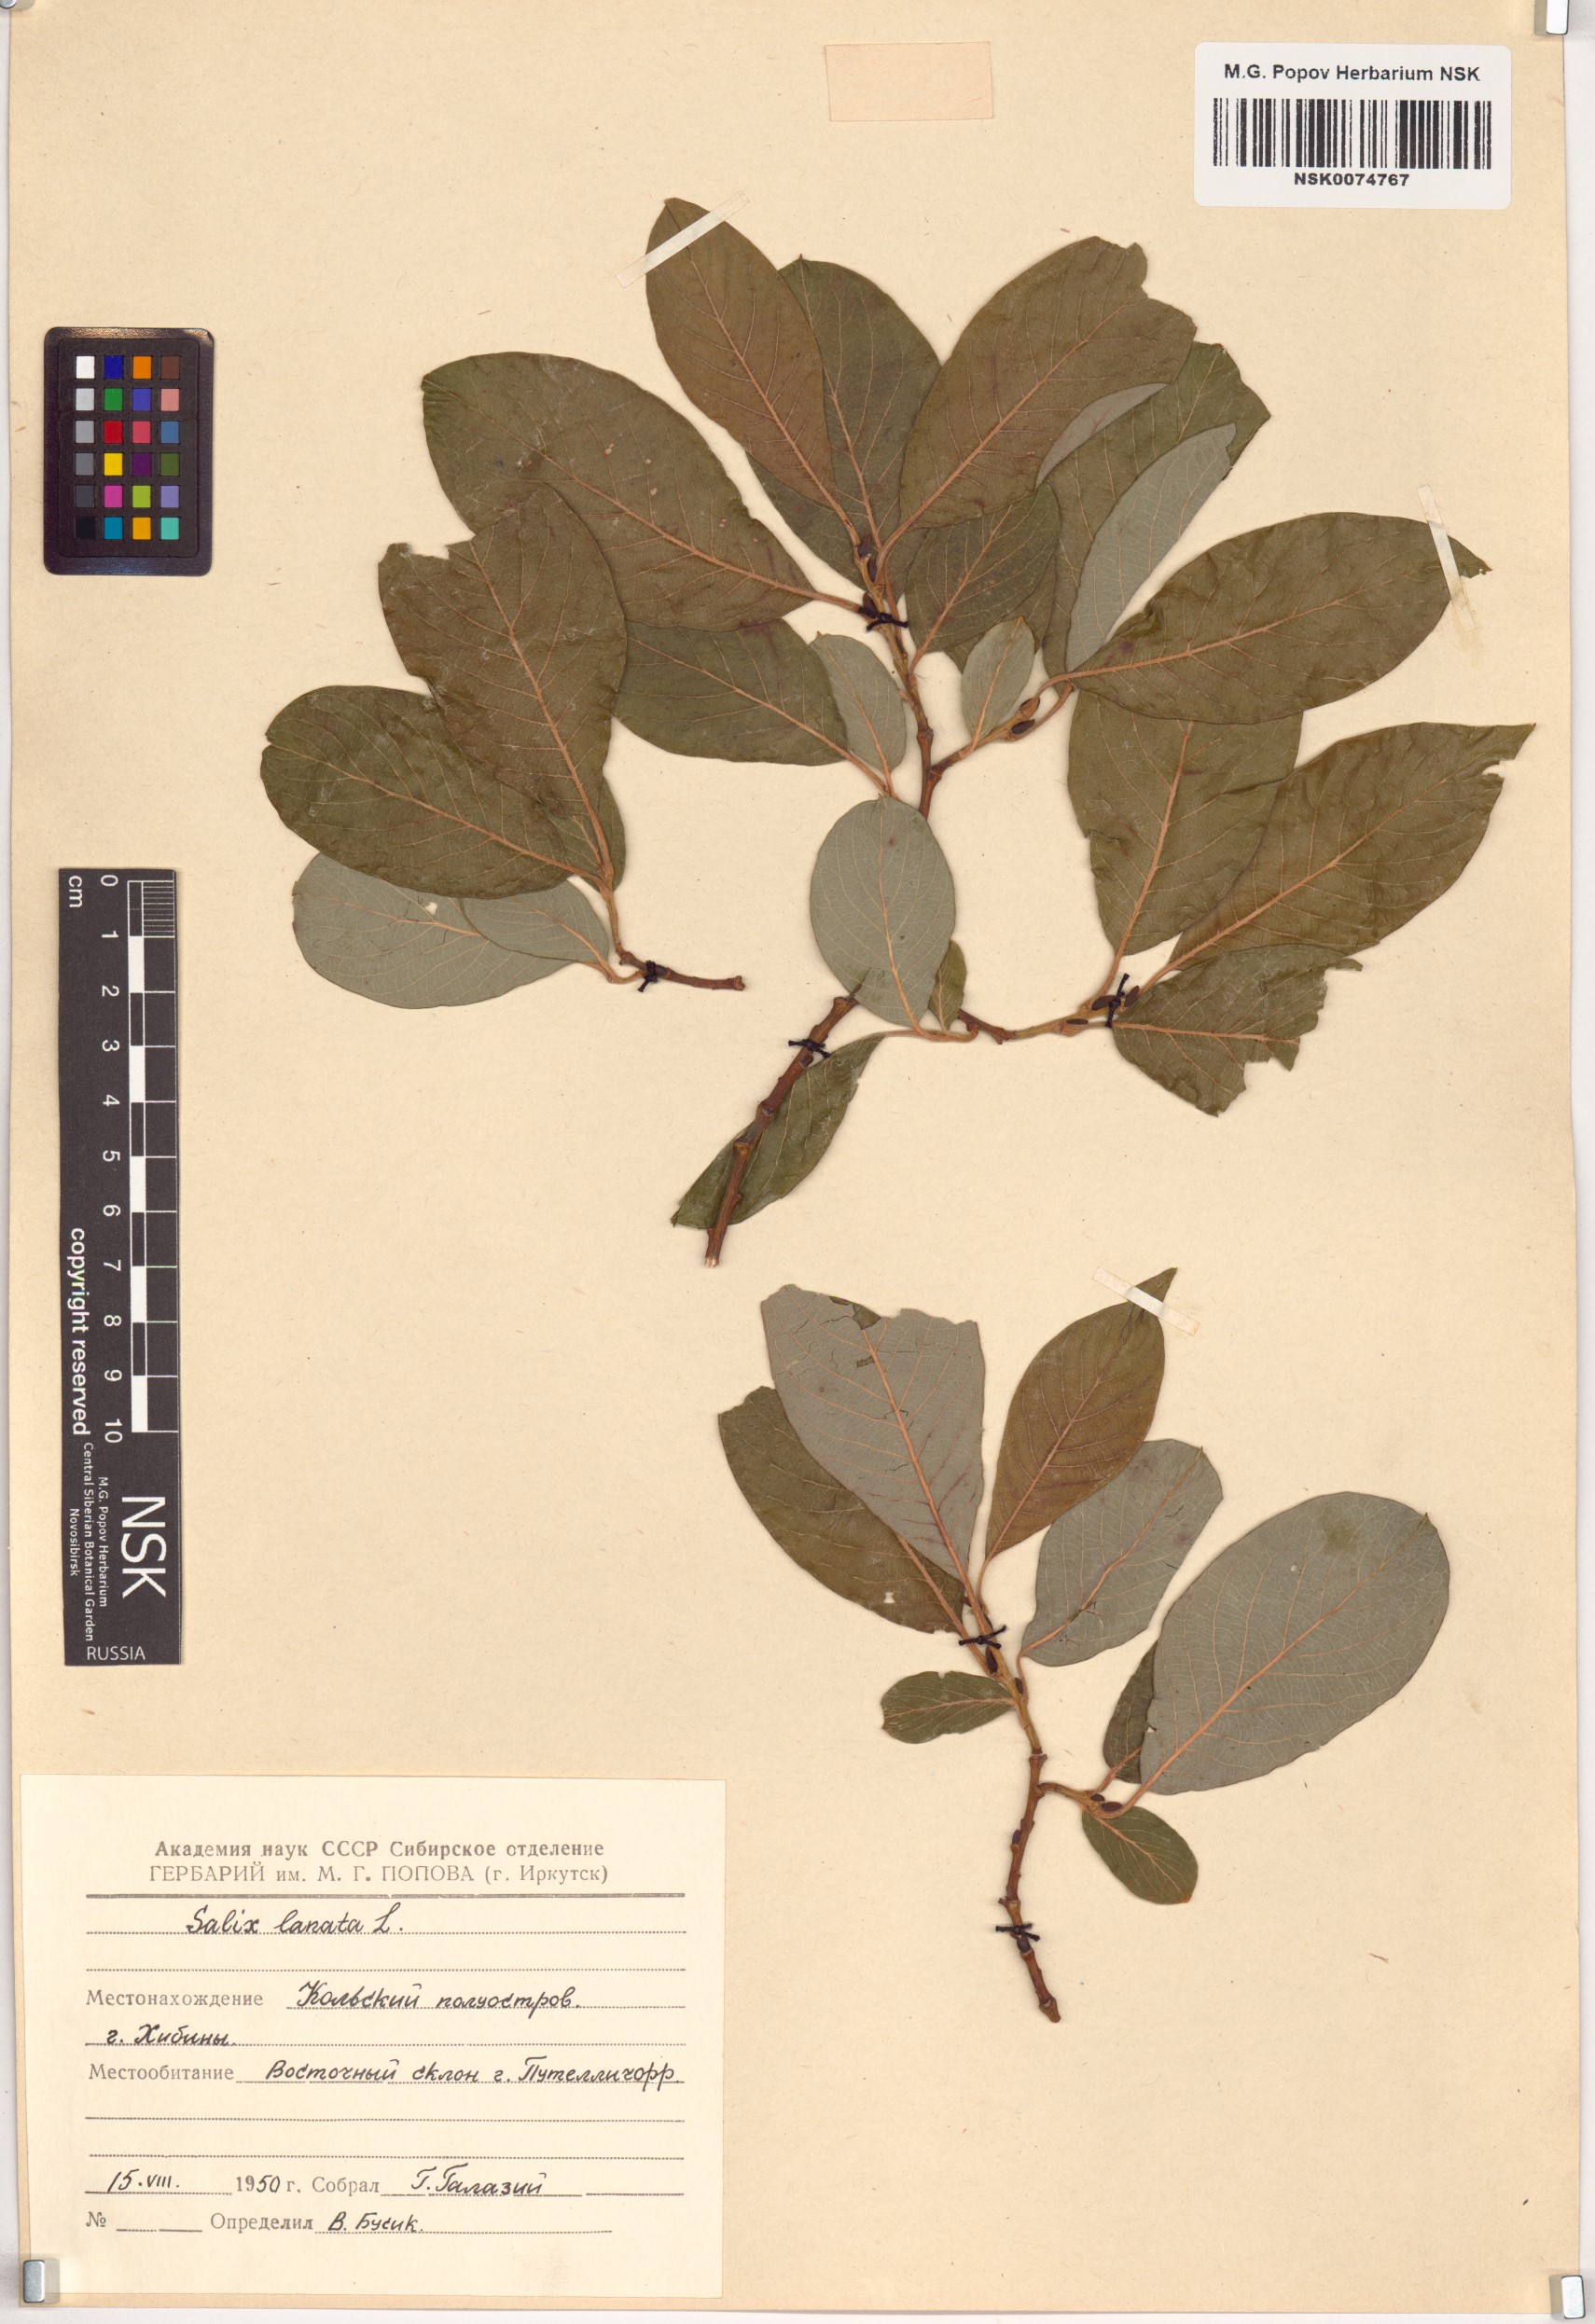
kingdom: Plantae
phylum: Tracheophyta
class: Magnoliopsida
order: Malpighiales
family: Salicaceae
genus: Salix
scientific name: Salix lanata
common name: Woolly willow
